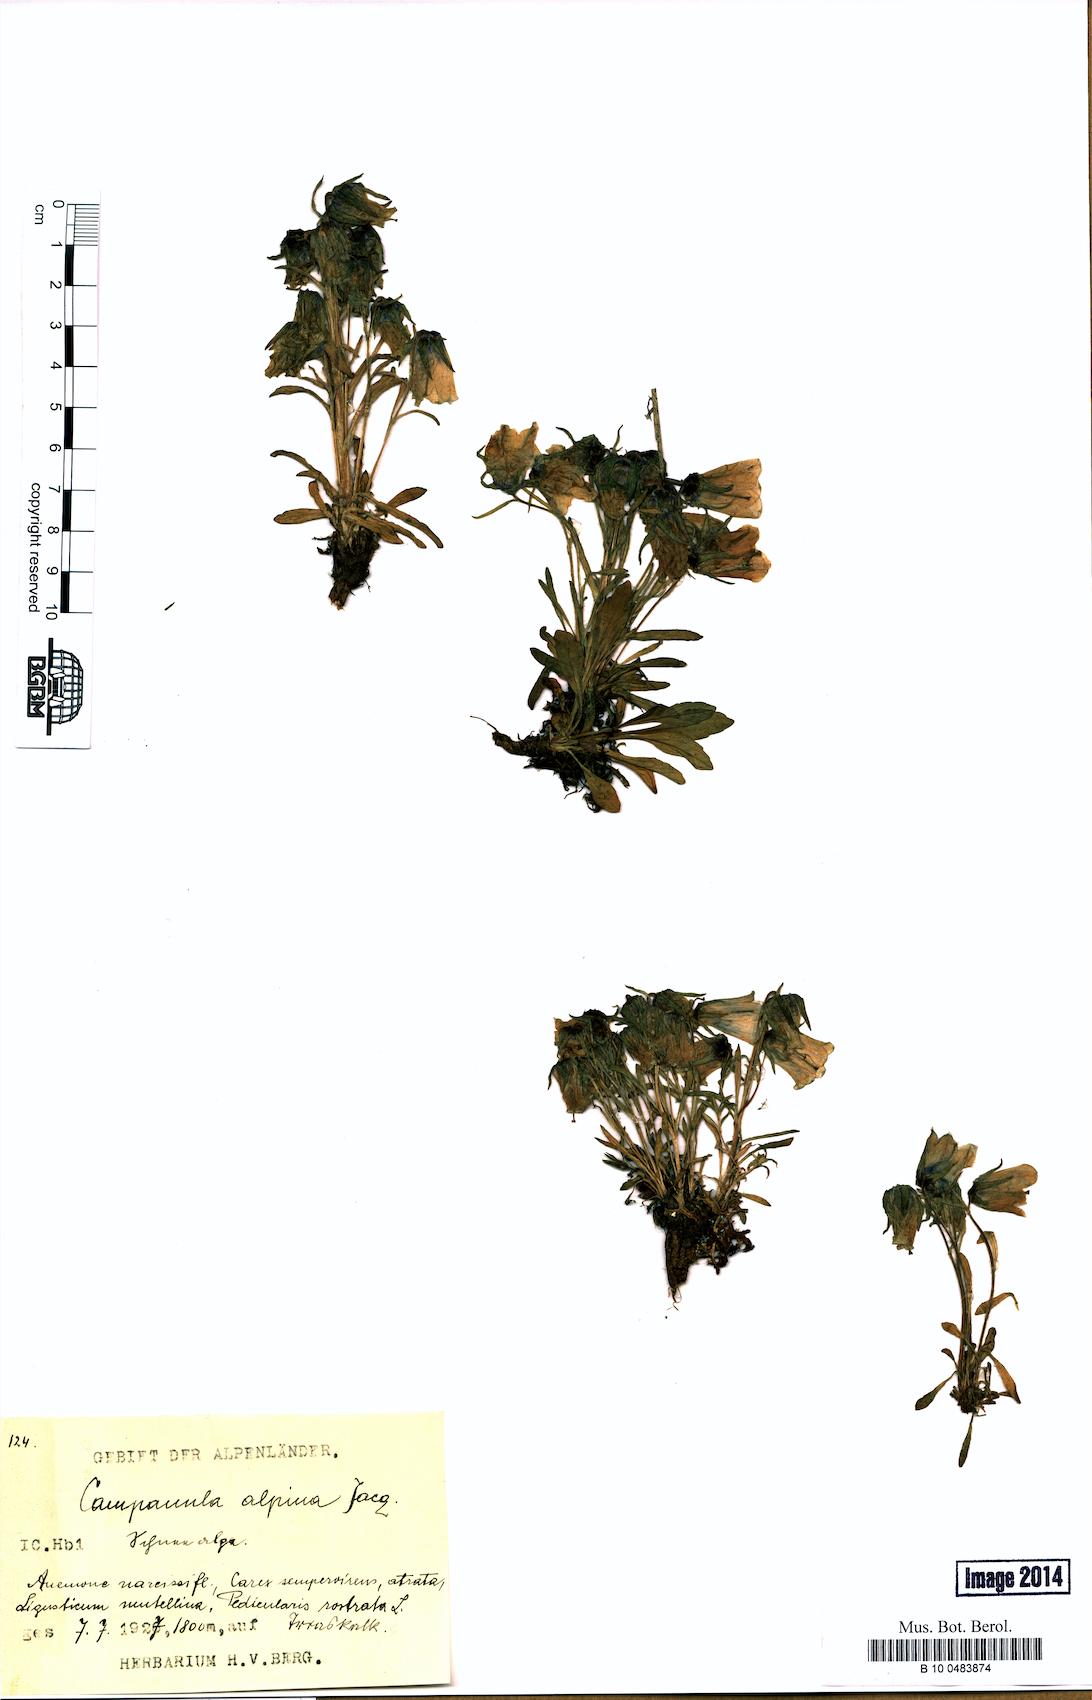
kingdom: Plantae
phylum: Tracheophyta
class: Magnoliopsida
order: Asterales
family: Campanulaceae
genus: Campanula
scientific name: Campanula alpina
